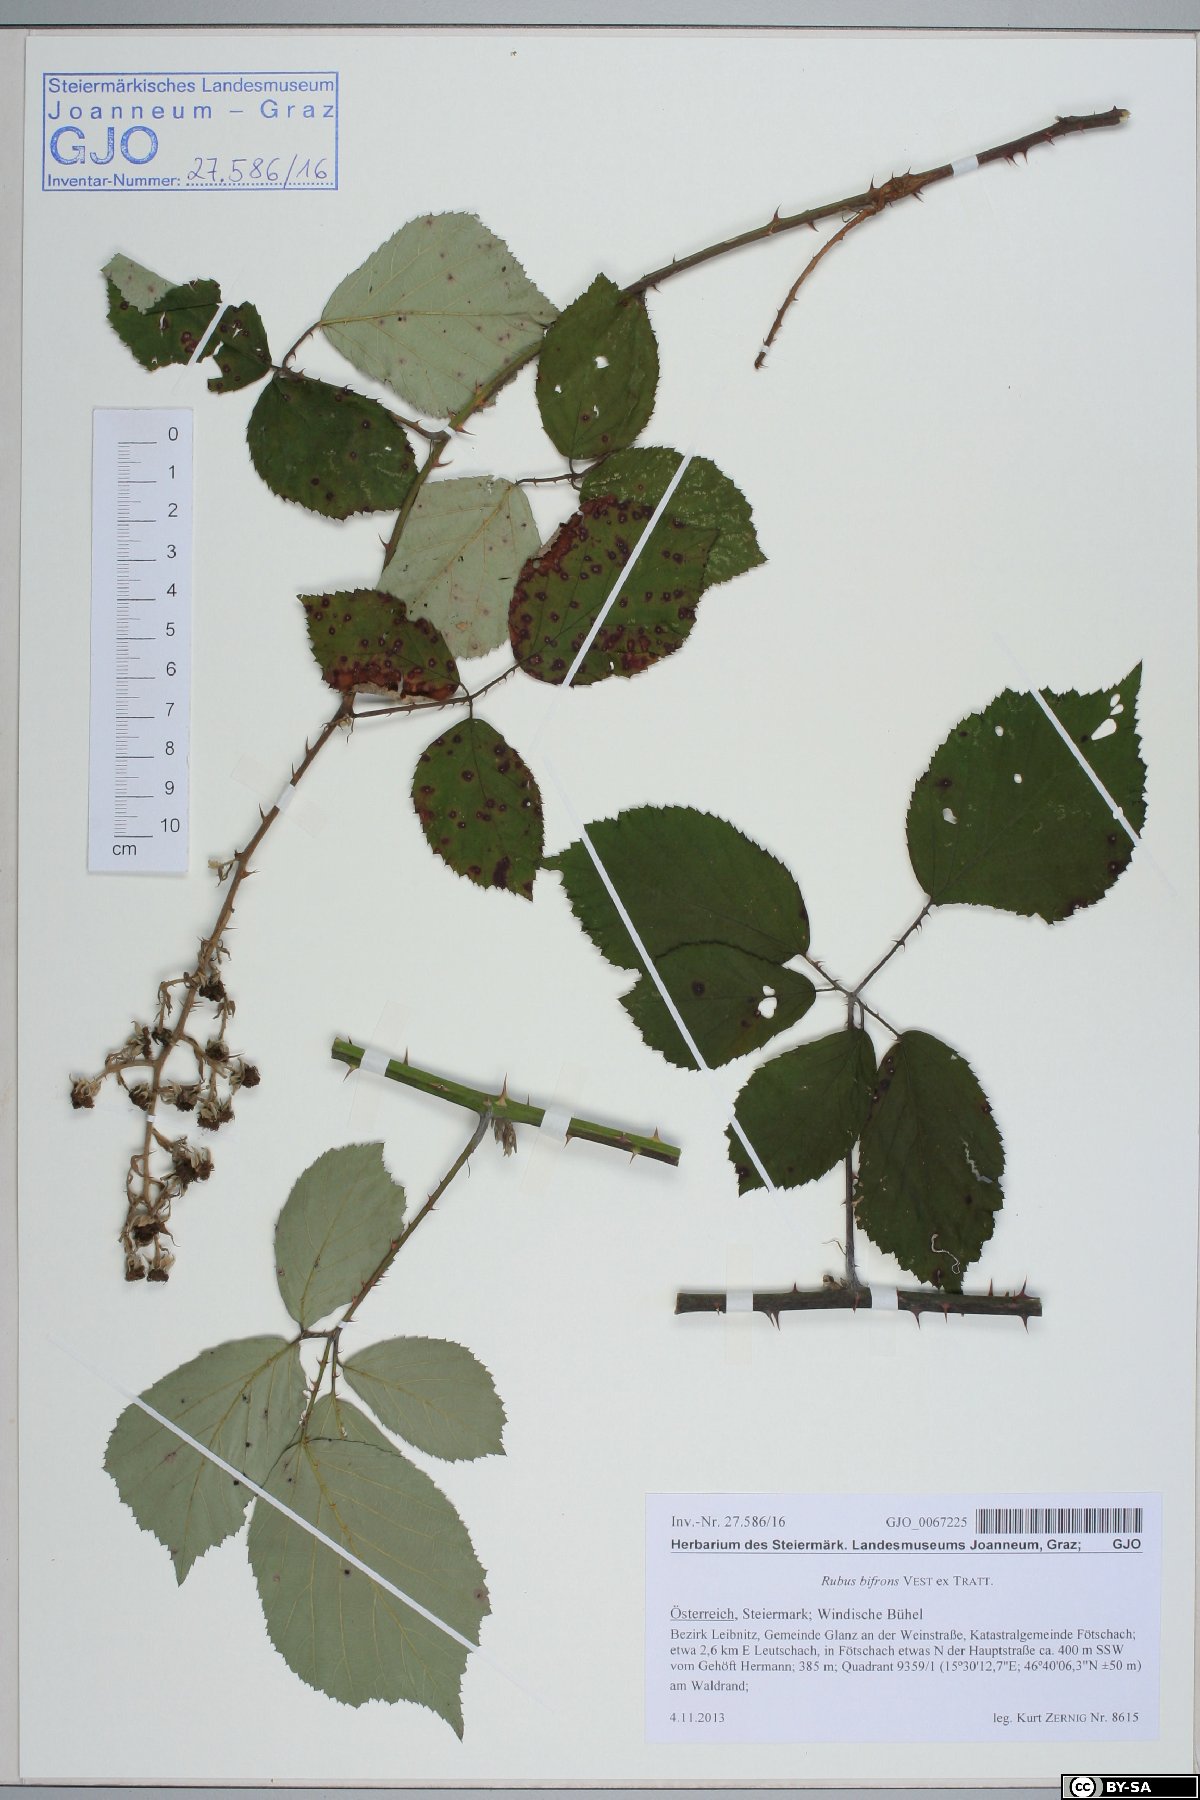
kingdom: Plantae
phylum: Tracheophyta
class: Magnoliopsida
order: Rosales
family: Rosaceae
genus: Rubus
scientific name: Rubus bifrons
